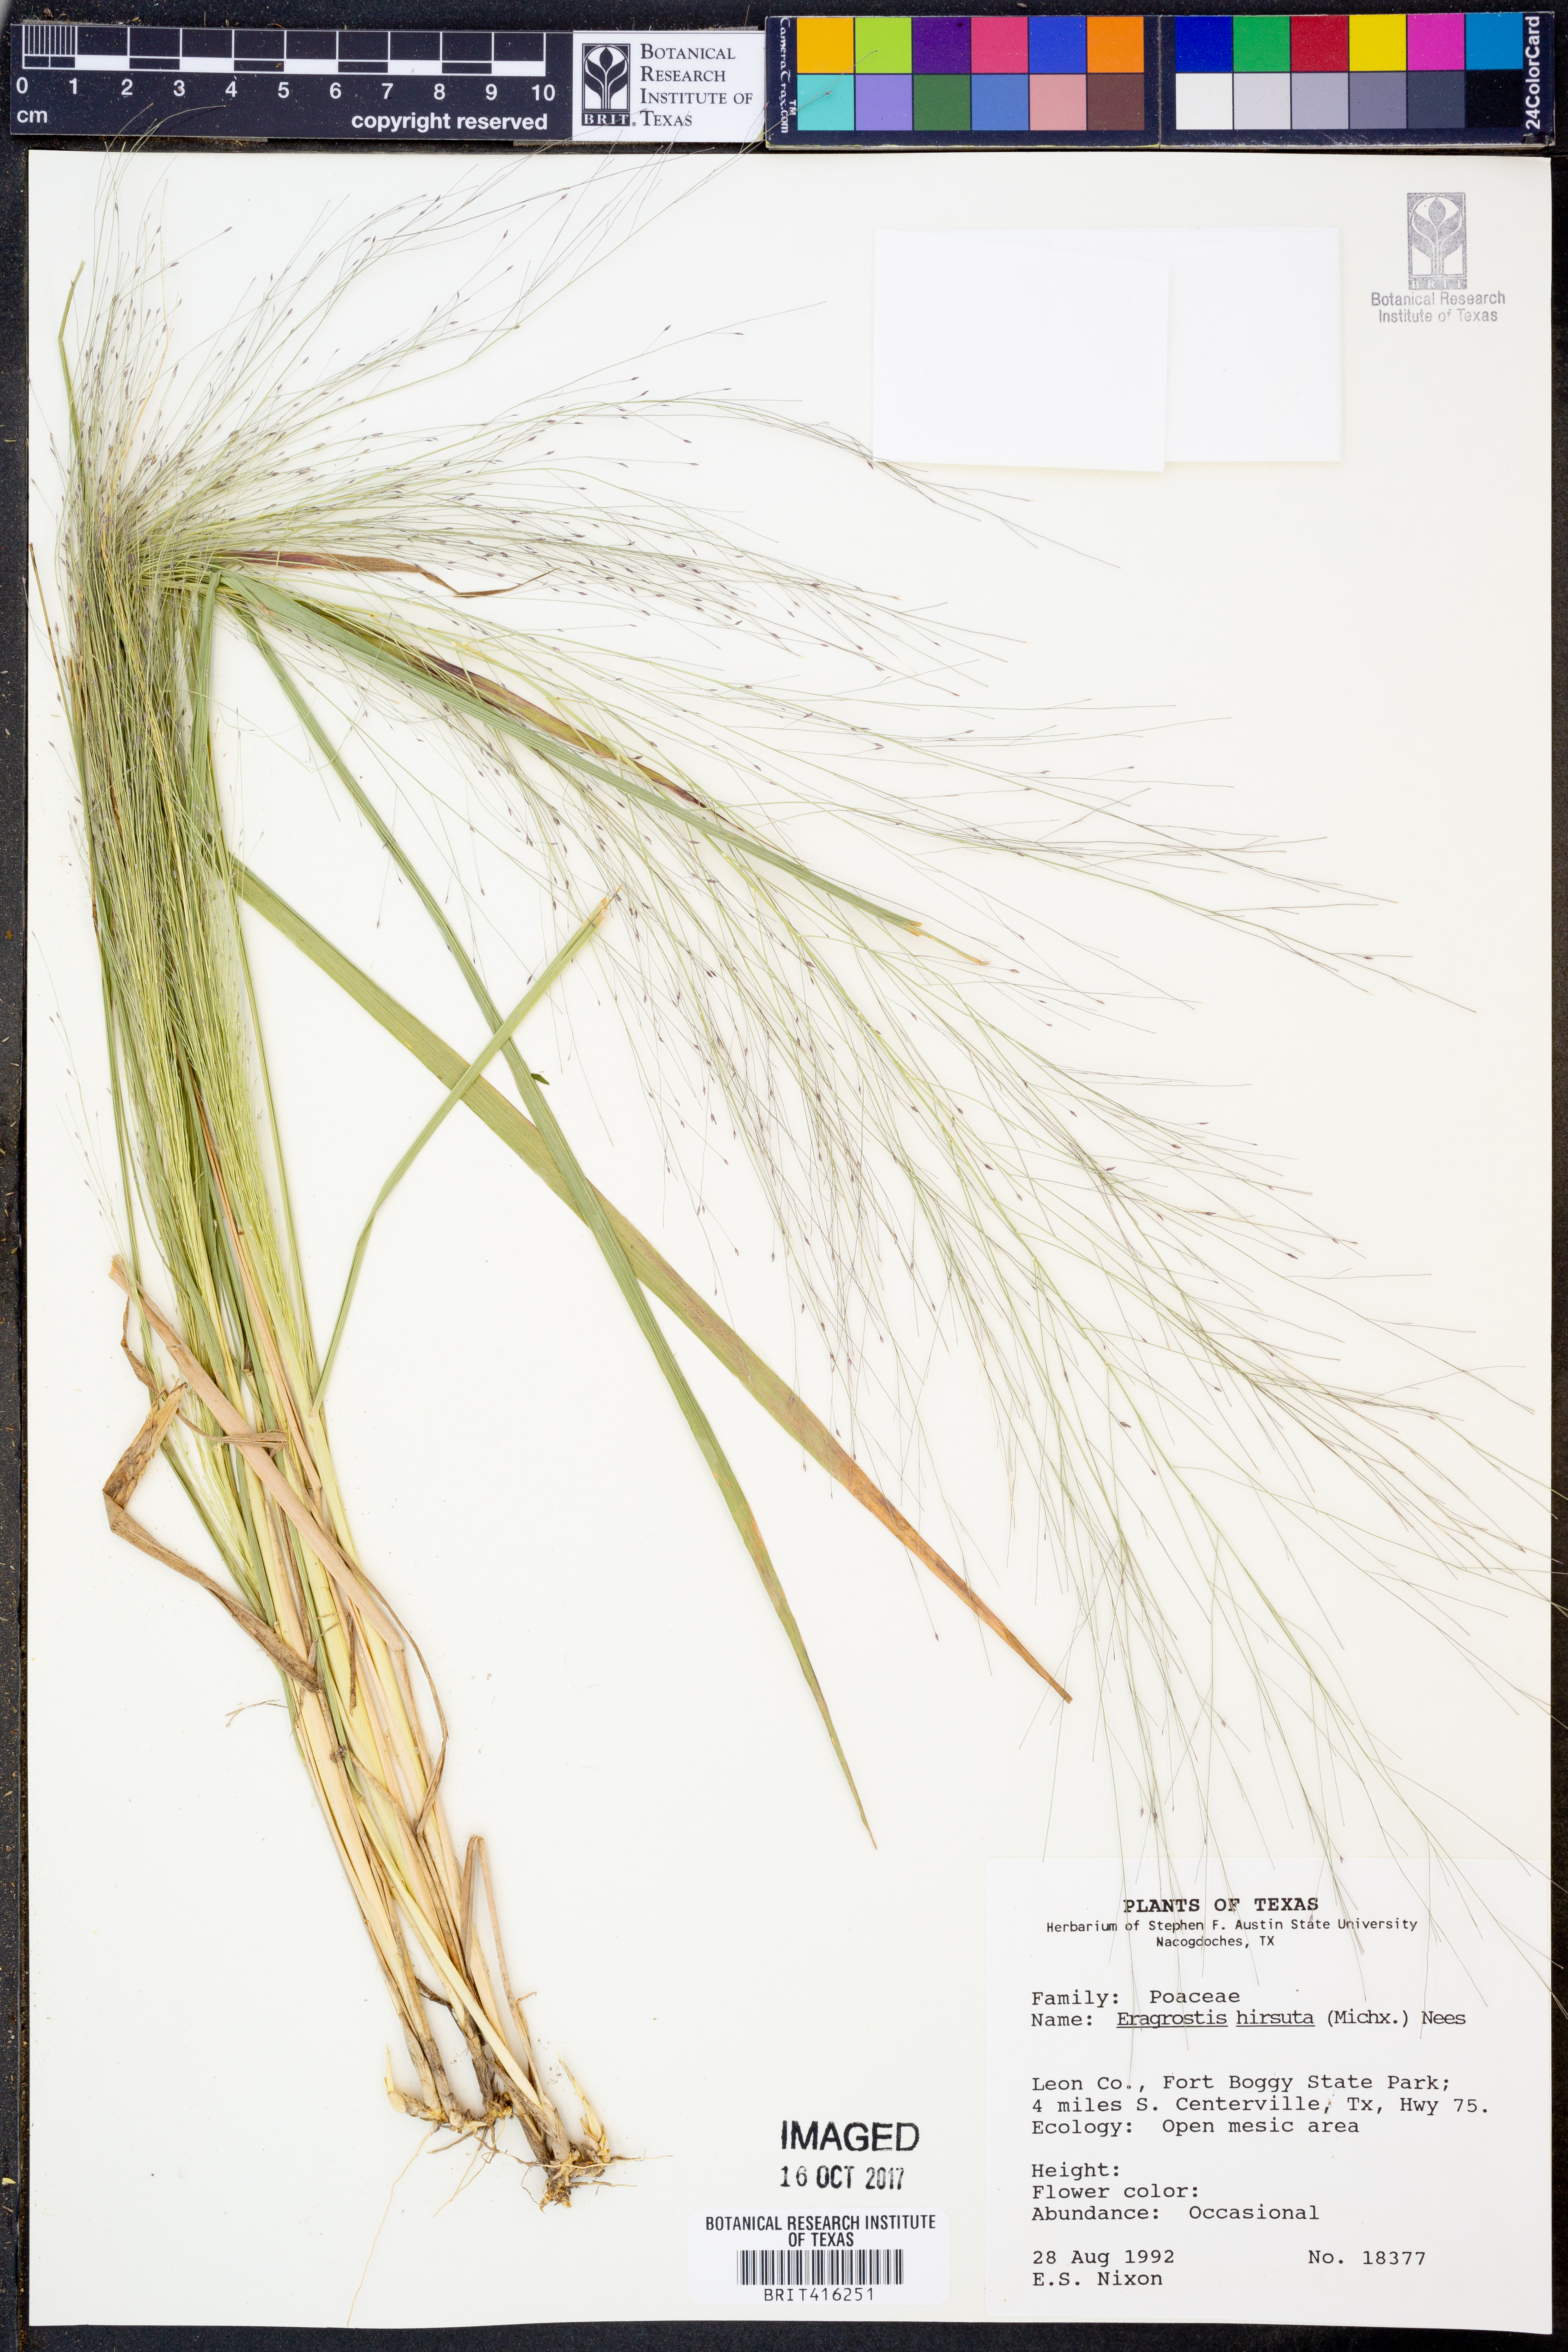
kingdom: Plantae
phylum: Tracheophyta
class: Liliopsida
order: Poales
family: Poaceae
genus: Eragrostis
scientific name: Eragrostis hirsuta
